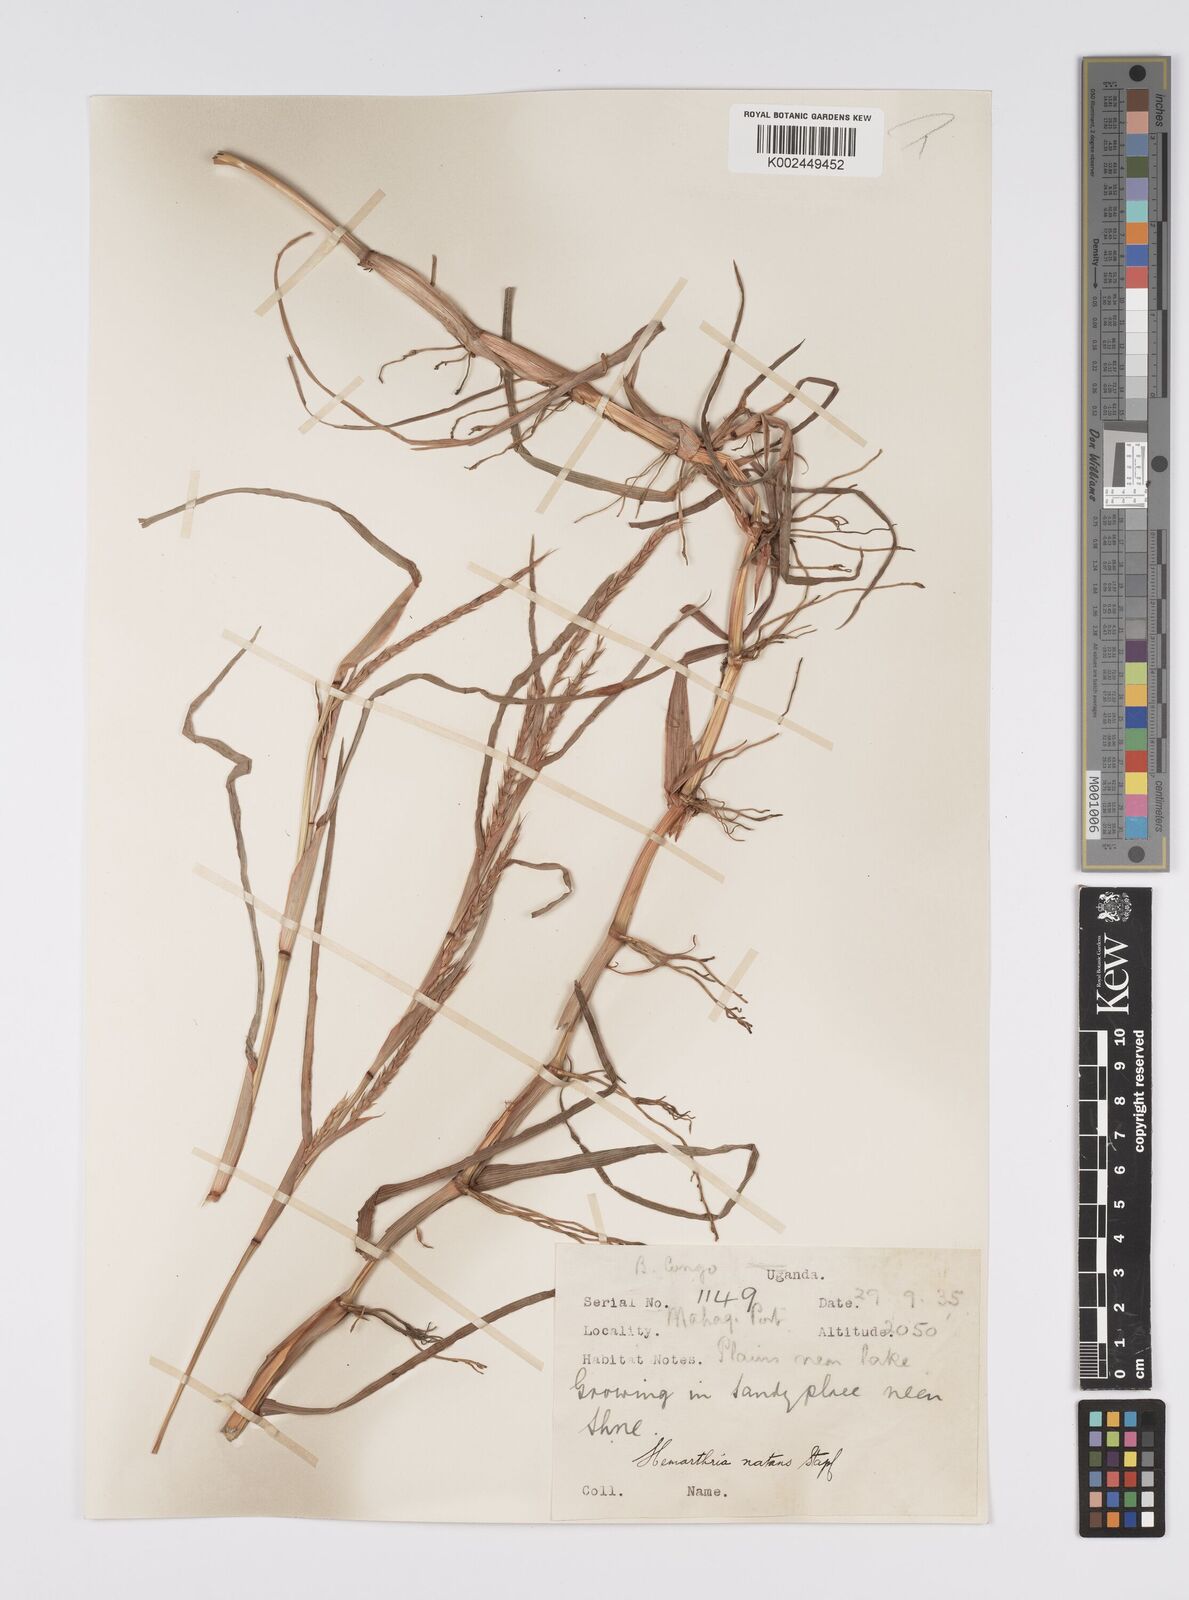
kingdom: Plantae
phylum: Tracheophyta
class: Liliopsida
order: Poales
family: Poaceae
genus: Hemarthria
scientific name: Hemarthria natans
